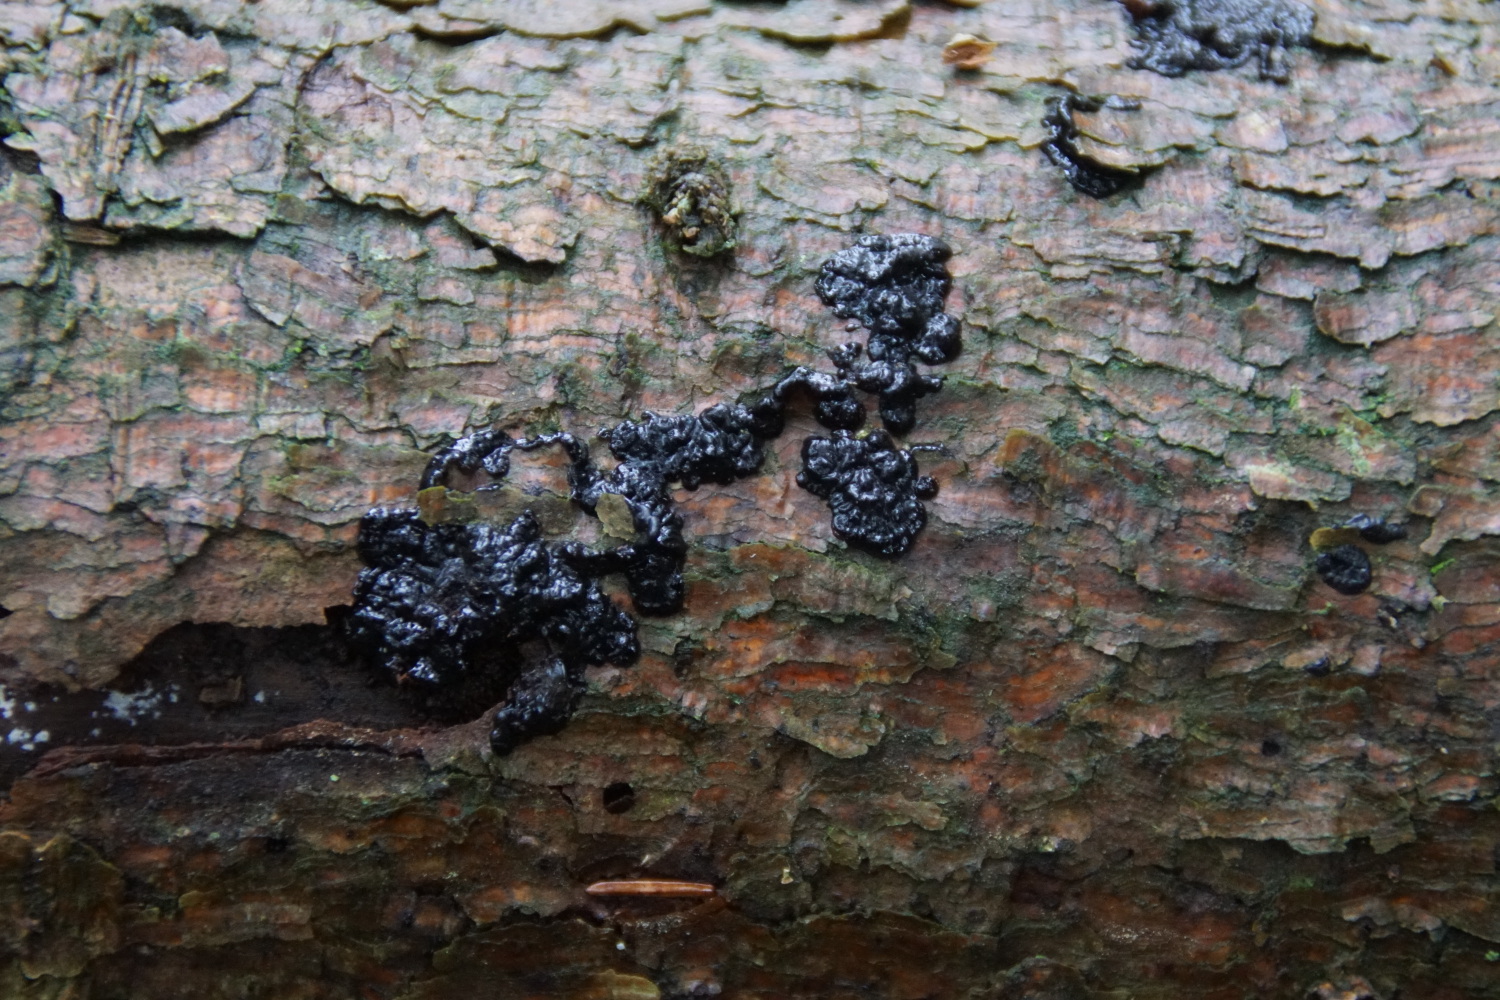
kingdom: Fungi
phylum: Basidiomycota
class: Agaricomycetes
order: Auriculariales
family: Auriculariaceae
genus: Exidia
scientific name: Exidia pithya
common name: gran-bævretop
